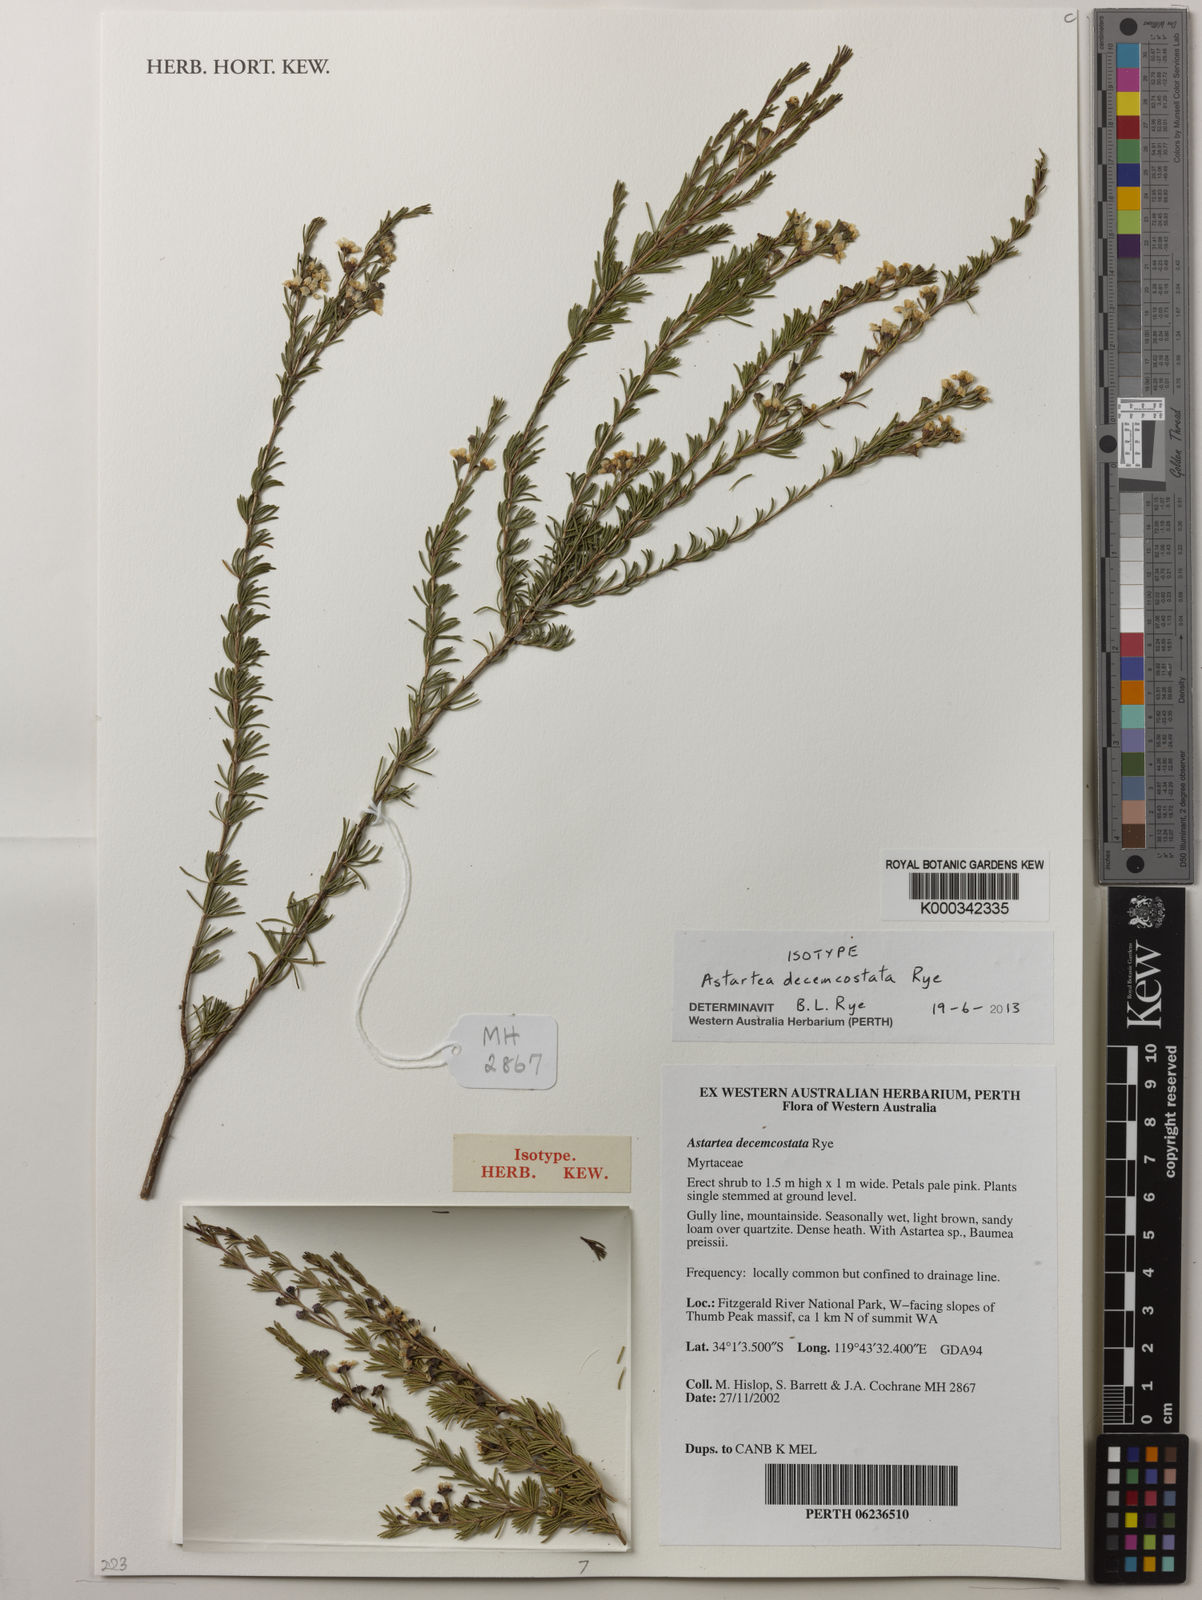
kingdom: Plantae
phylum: Tracheophyta
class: Magnoliopsida
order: Myrtales
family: Myrtaceae
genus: Astartea
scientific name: Astartea decemcostata
